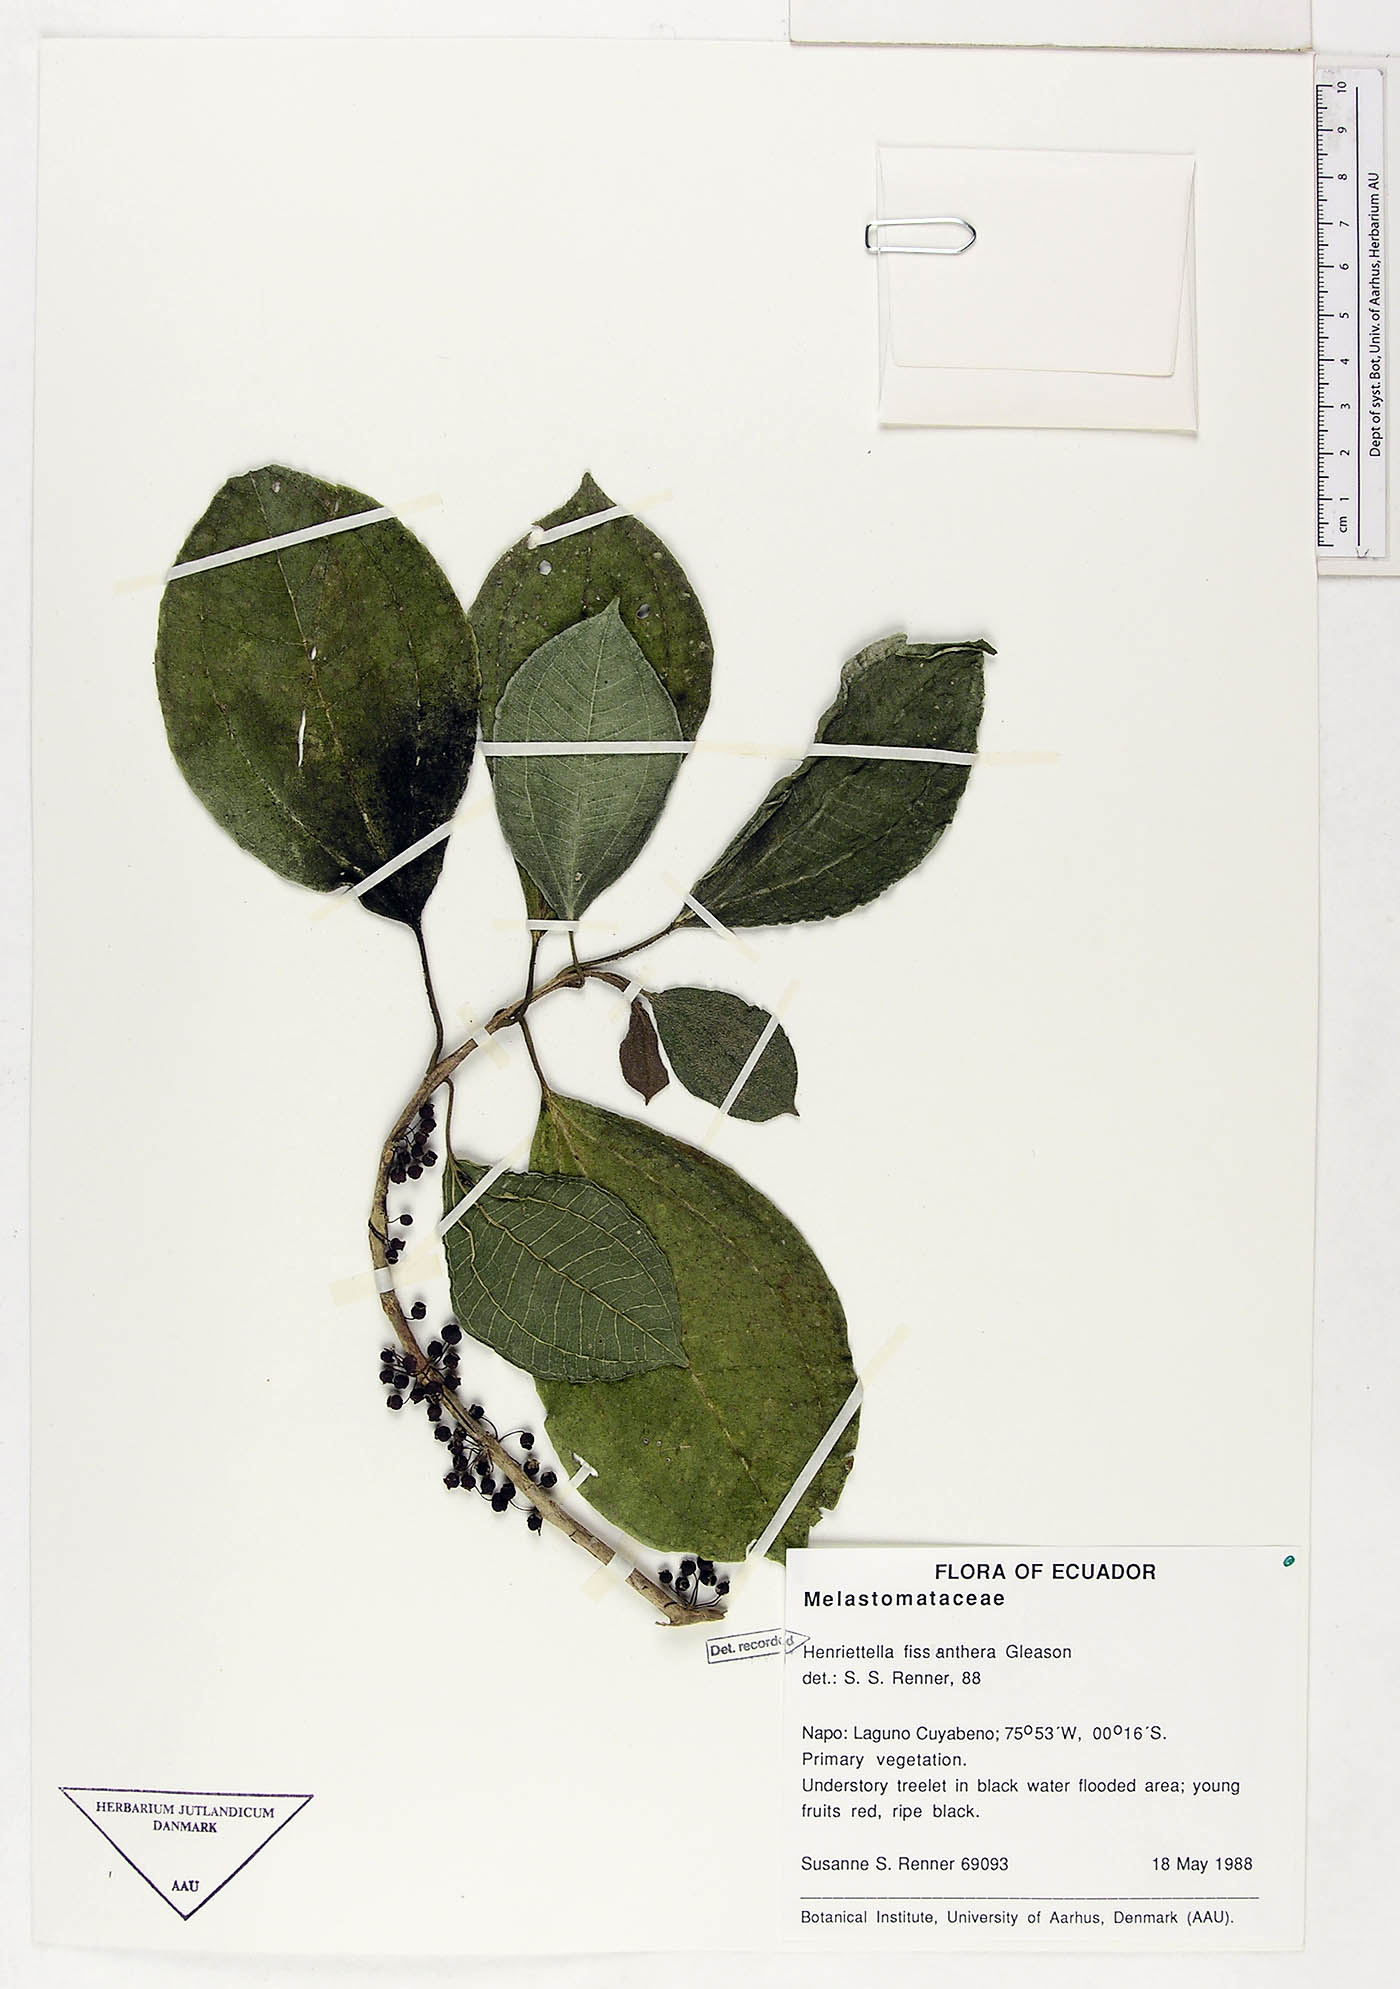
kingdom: Plantae
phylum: Tracheophyta
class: Magnoliopsida
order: Myrtales
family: Melastomataceae
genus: Henriettea
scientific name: Henriettea fissanthera
